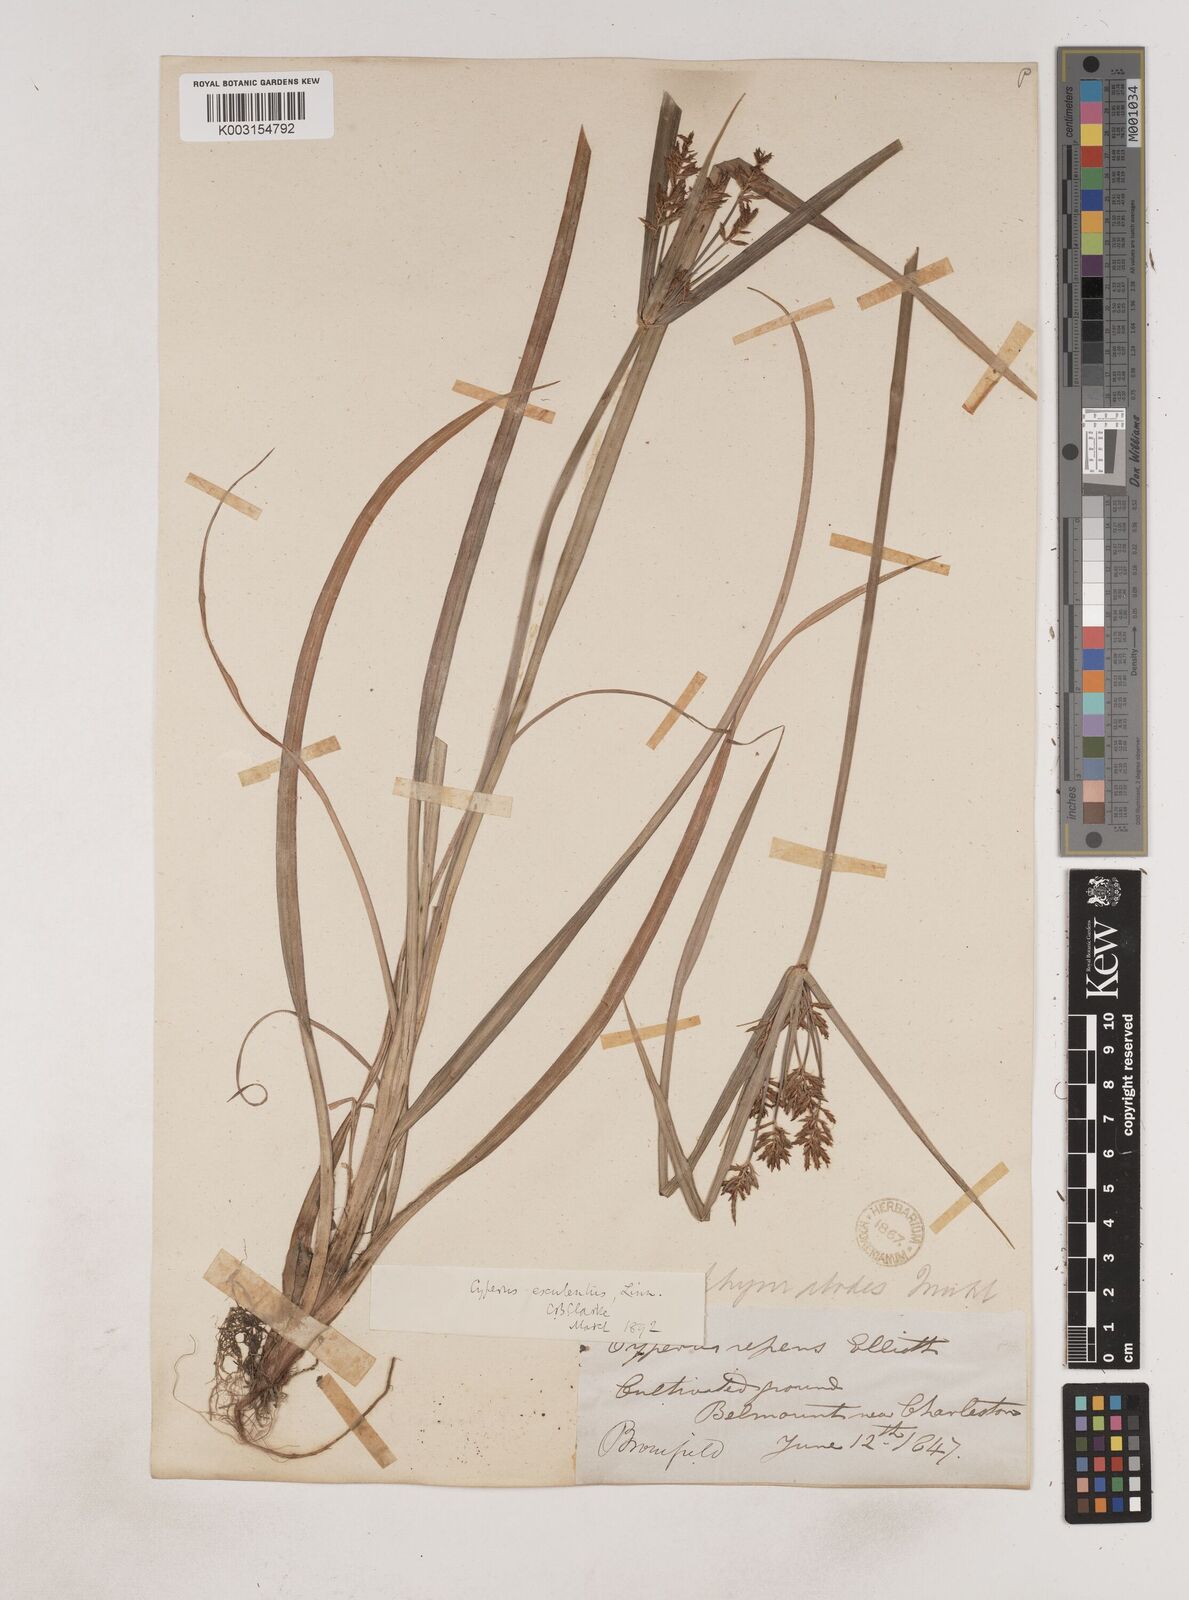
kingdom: Plantae
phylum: Tracheophyta
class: Liliopsida
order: Poales
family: Cyperaceae
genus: Cyperus
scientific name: Cyperus esculentus
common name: Yellow nutsedge
